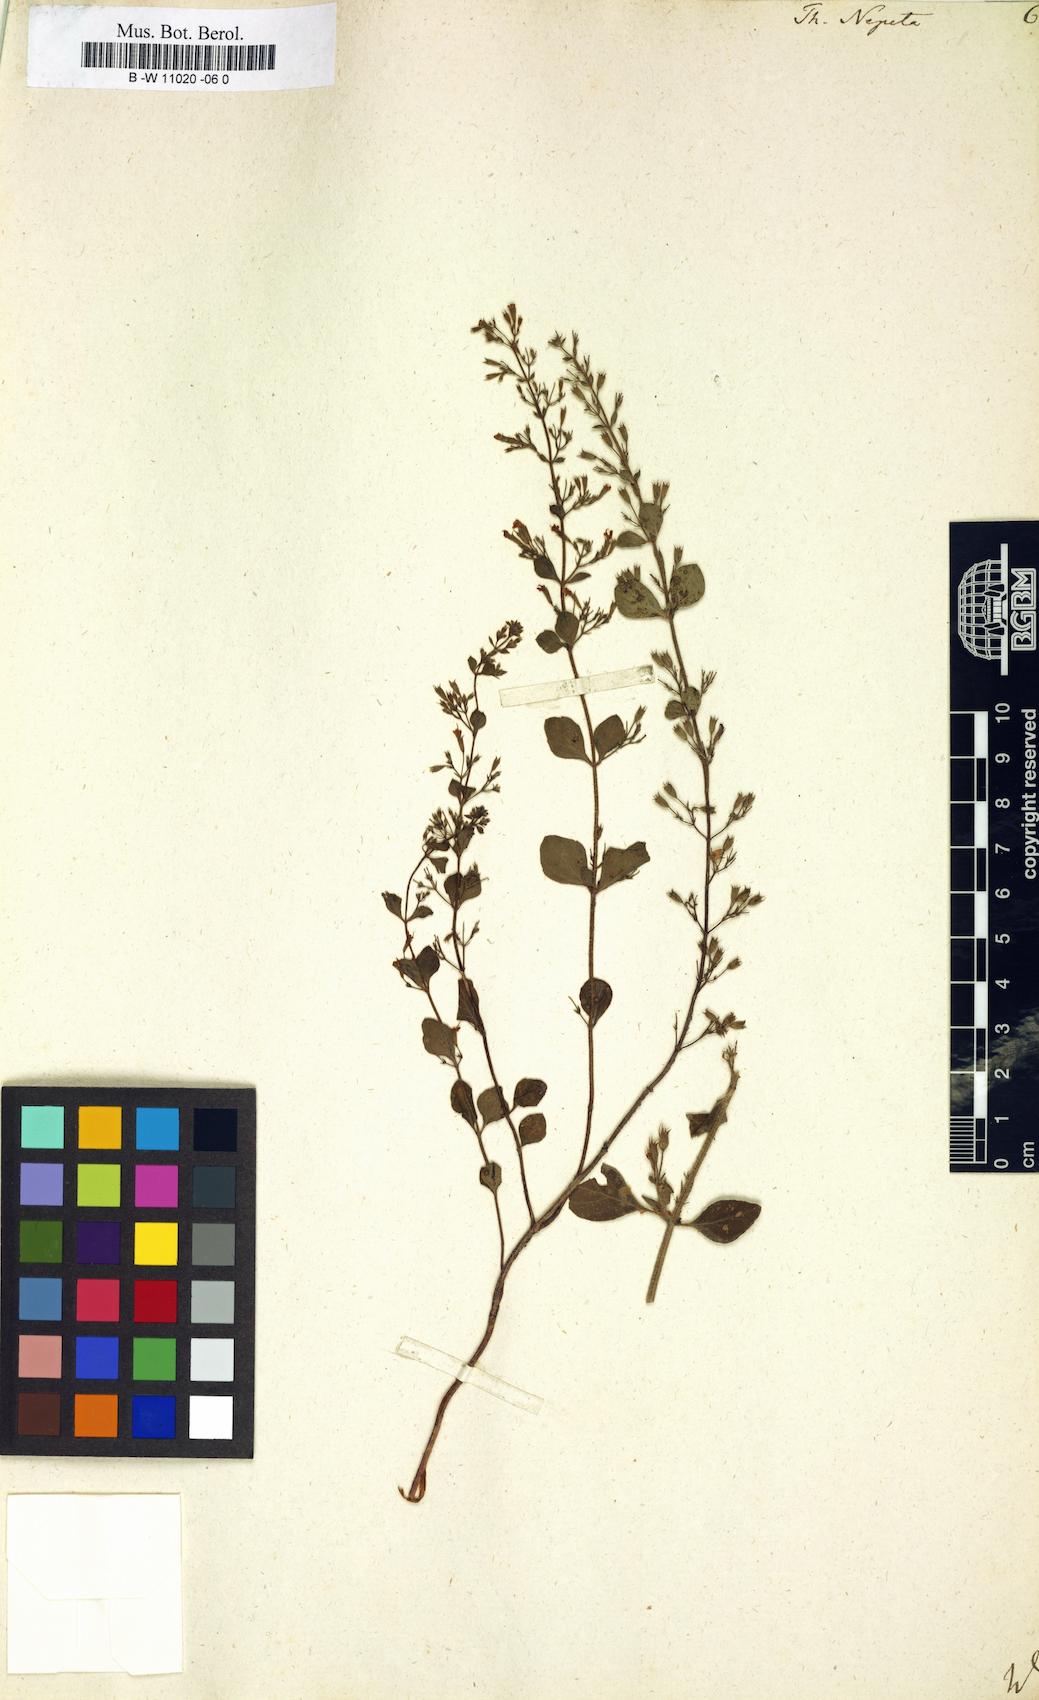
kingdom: Plantae
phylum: Tracheophyta
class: Magnoliopsida
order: Lamiales
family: Lamiaceae
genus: Clinopodium
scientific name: Clinopodium nepeta
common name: Lesser calamint
